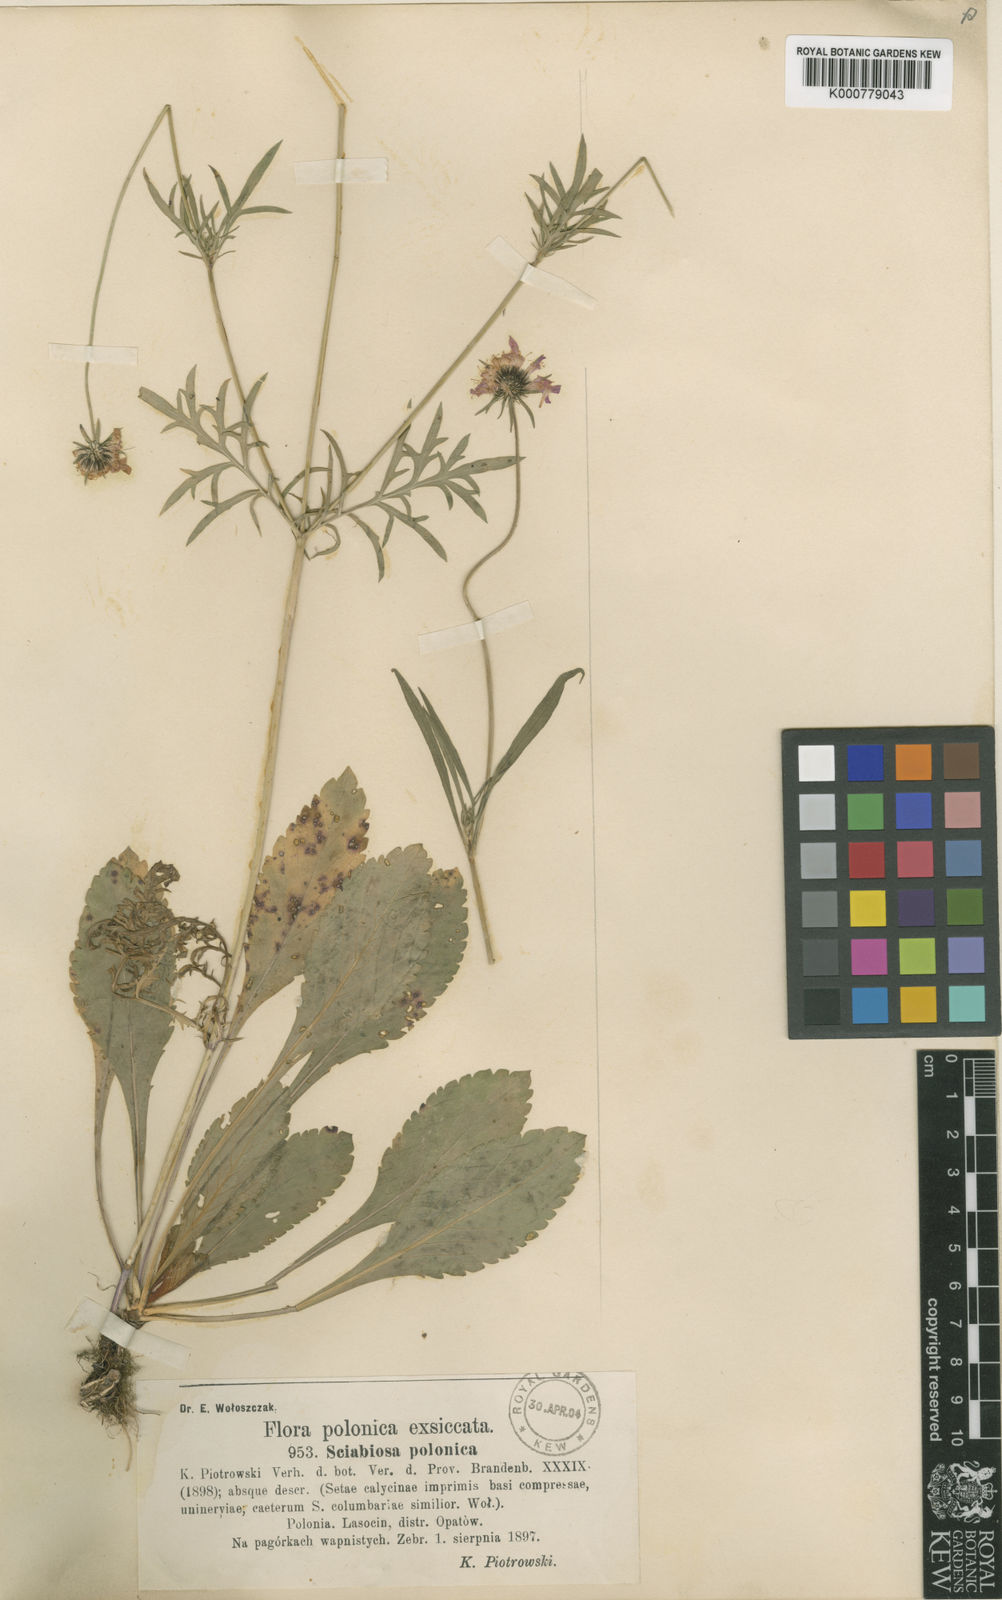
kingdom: Plantae
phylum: Tracheophyta
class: Magnoliopsida
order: Dipsacales
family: Caprifoliaceae
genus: Scabiosa
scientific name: Scabiosa columbaria
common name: Small scabious
